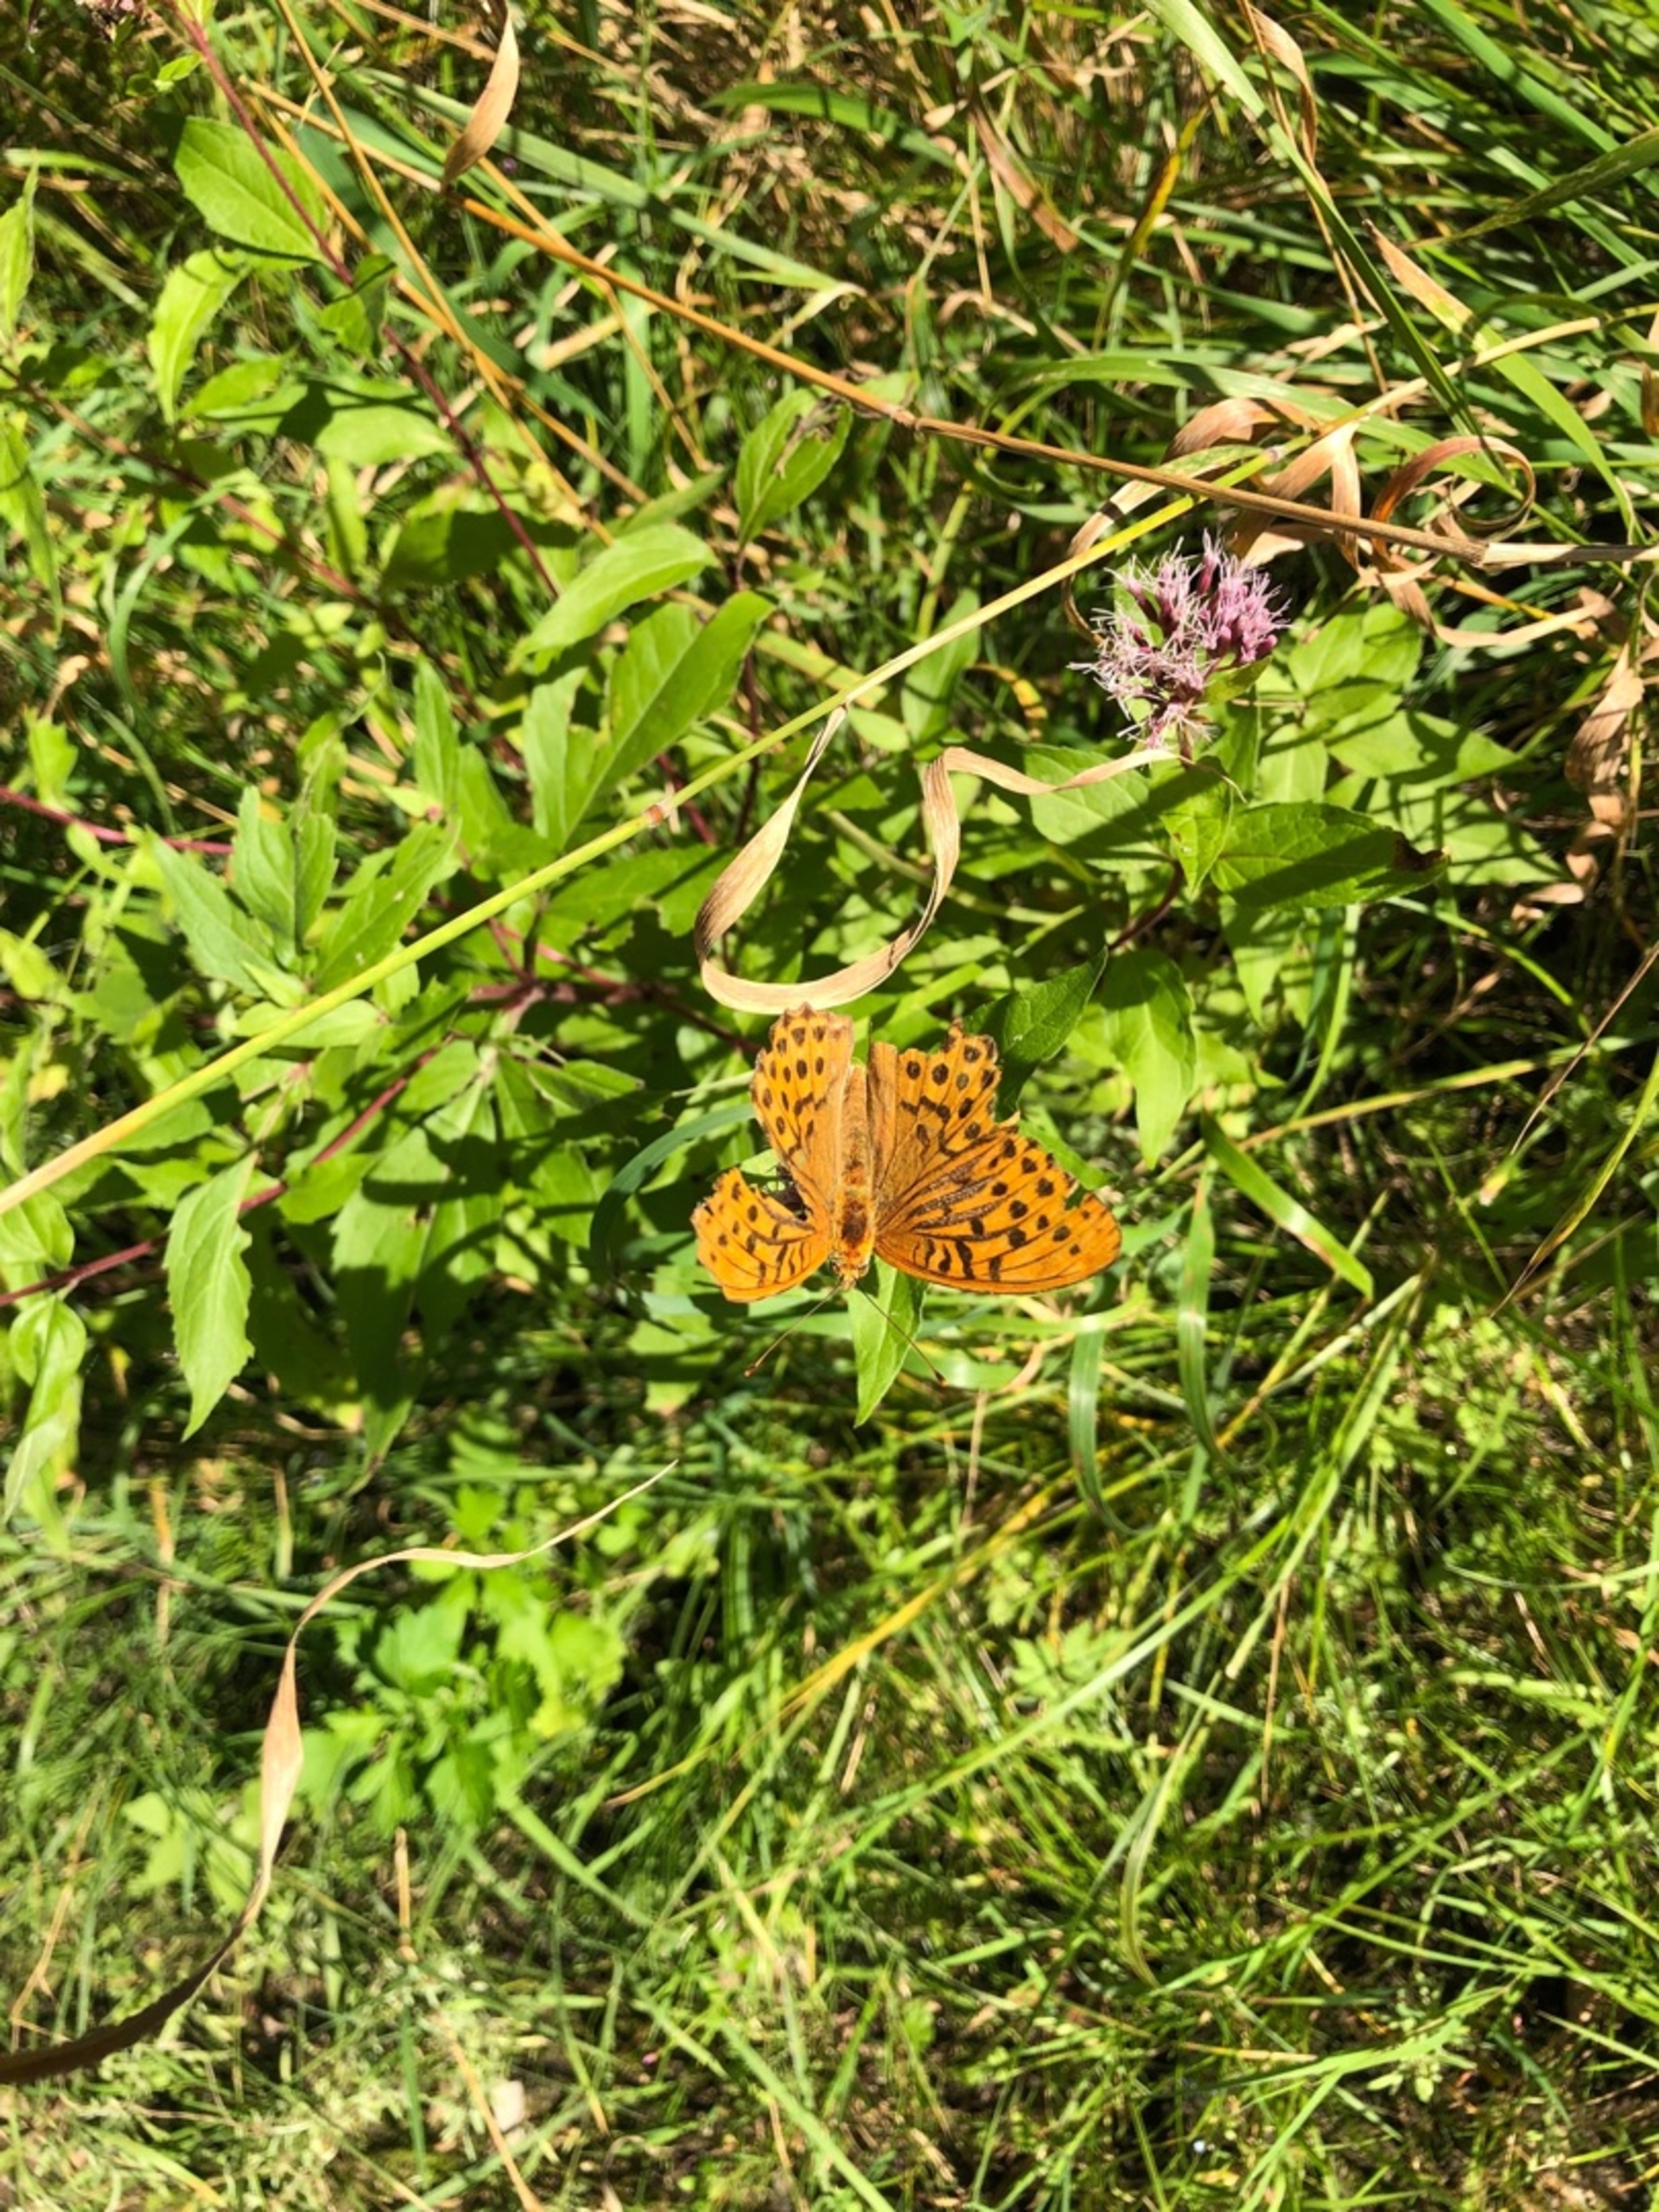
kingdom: Animalia
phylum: Arthropoda
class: Insecta
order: Lepidoptera
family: Nymphalidae
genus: Argynnis
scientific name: Argynnis paphia
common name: Kejserkåbe
